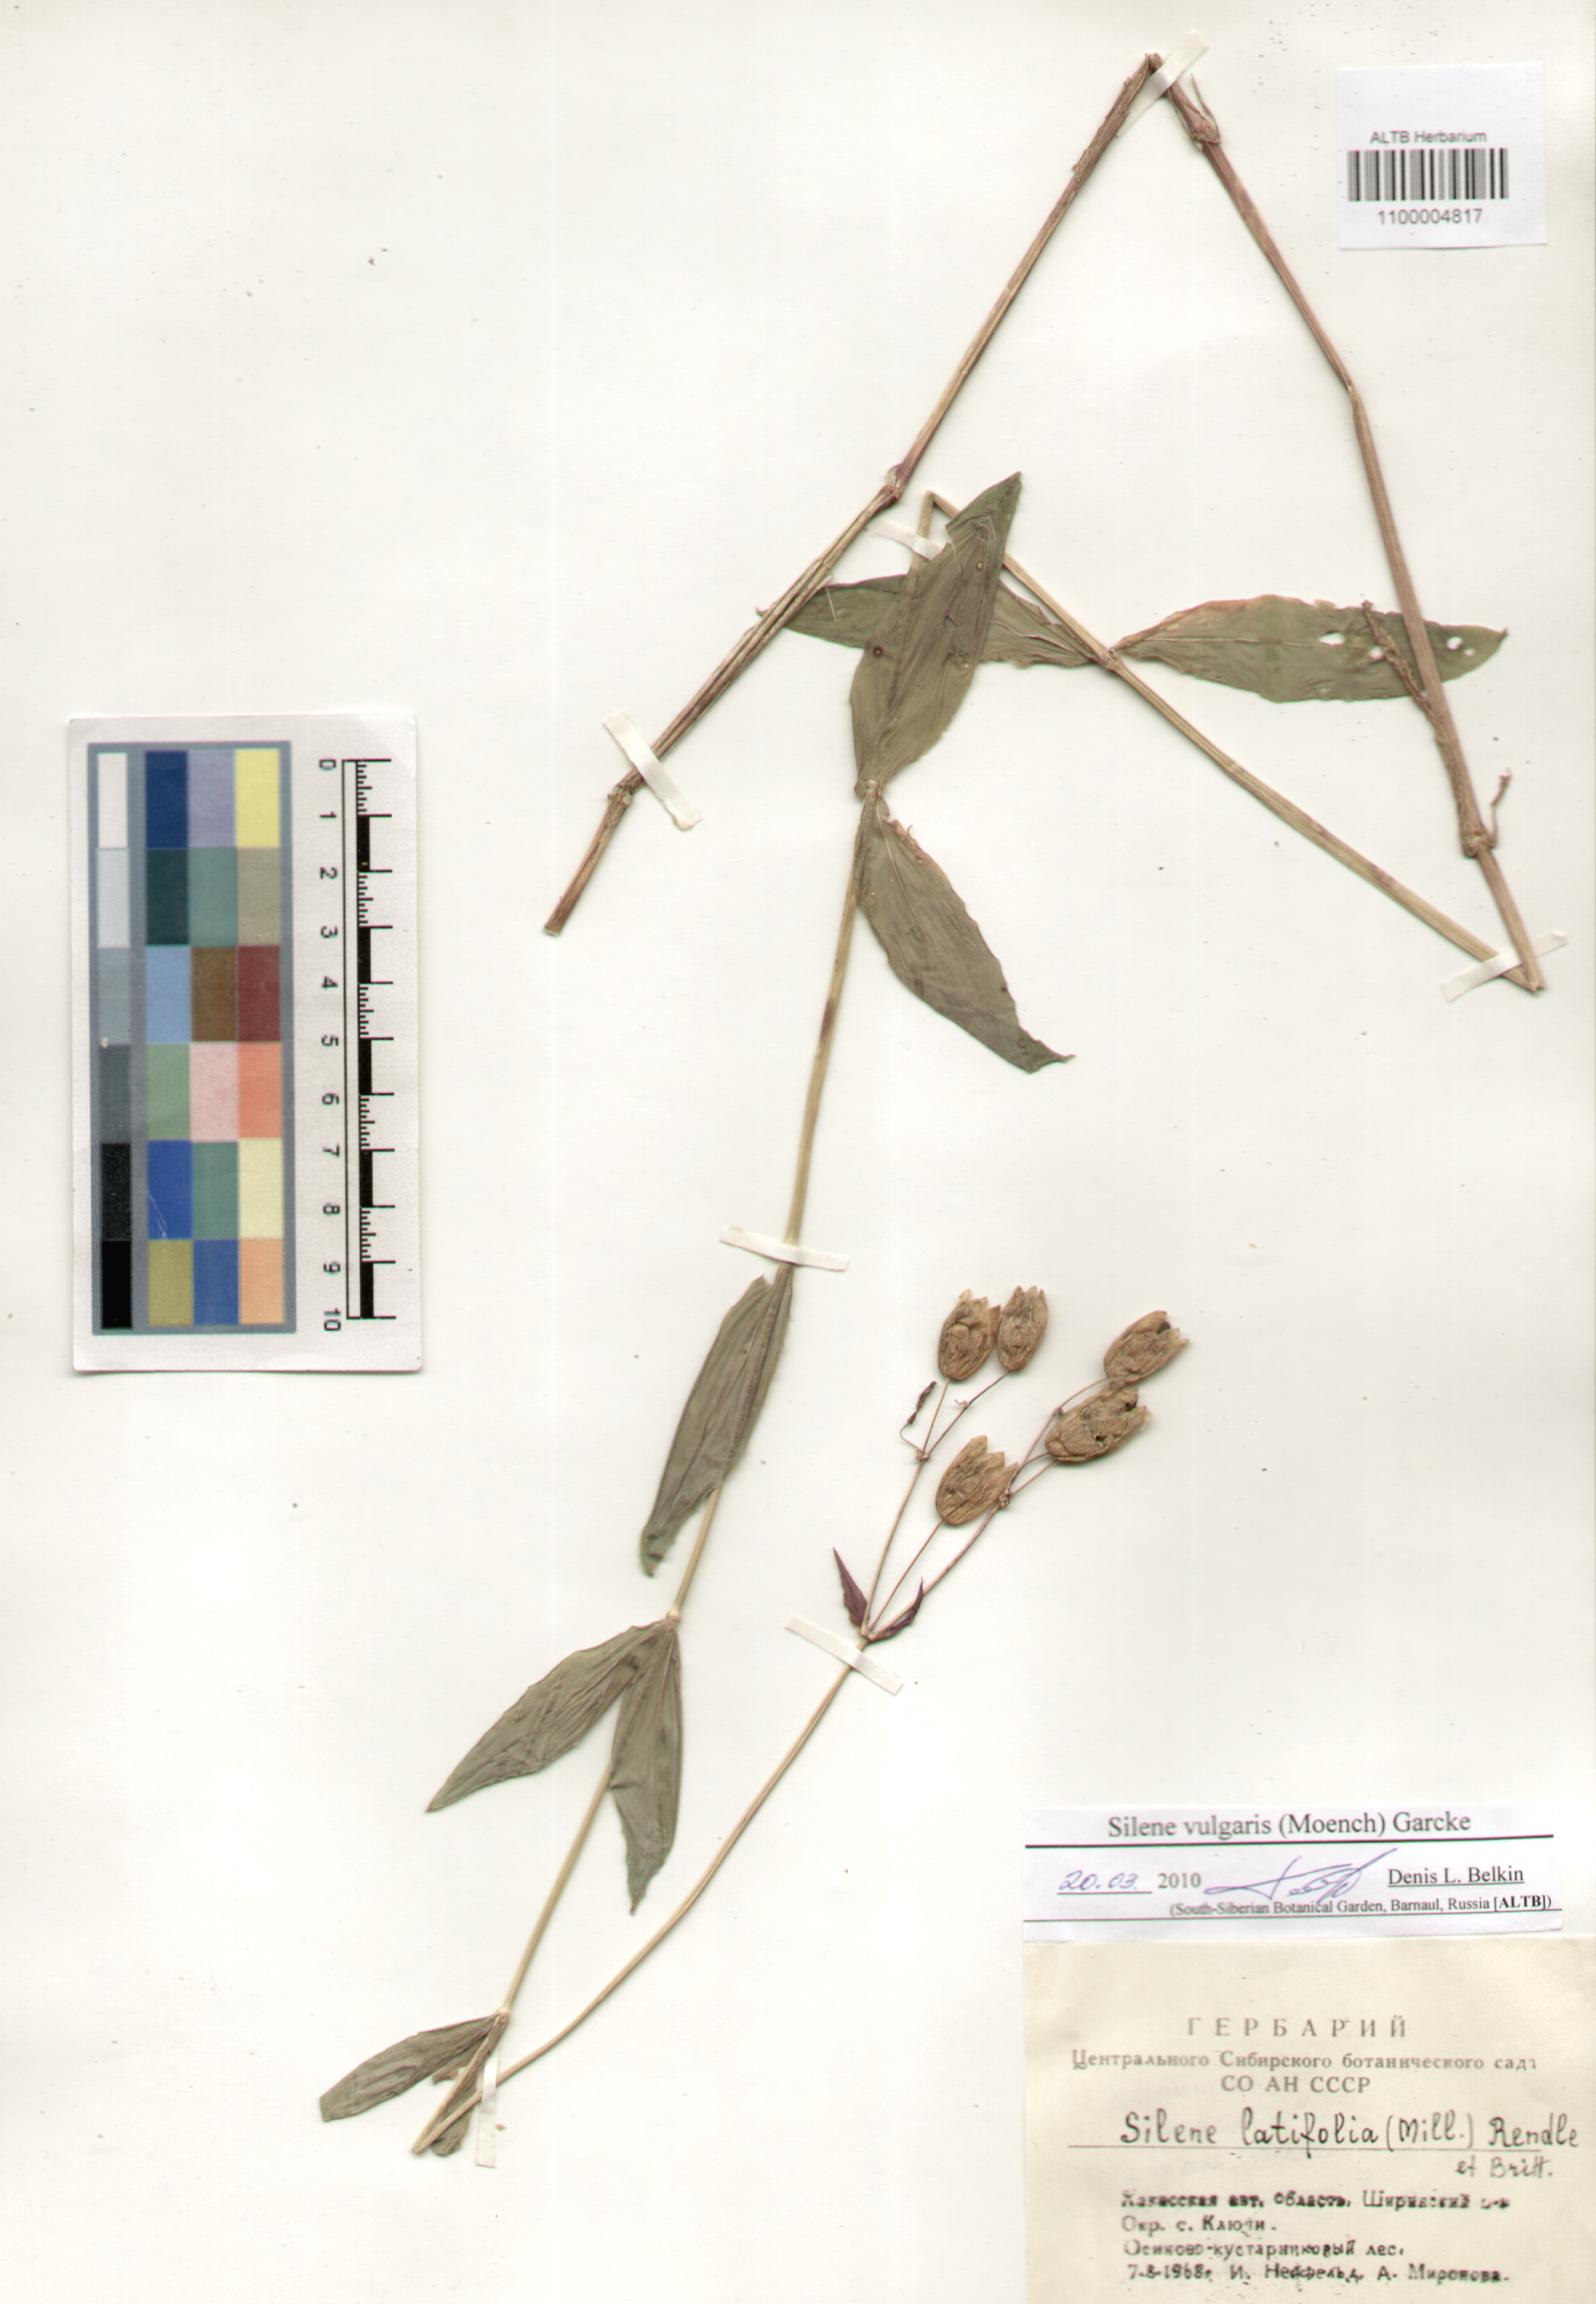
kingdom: Plantae
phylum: Tracheophyta
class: Magnoliopsida
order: Caryophyllales
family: Caryophyllaceae
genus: Silene
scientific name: Silene vulgaris
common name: Bladder campion
